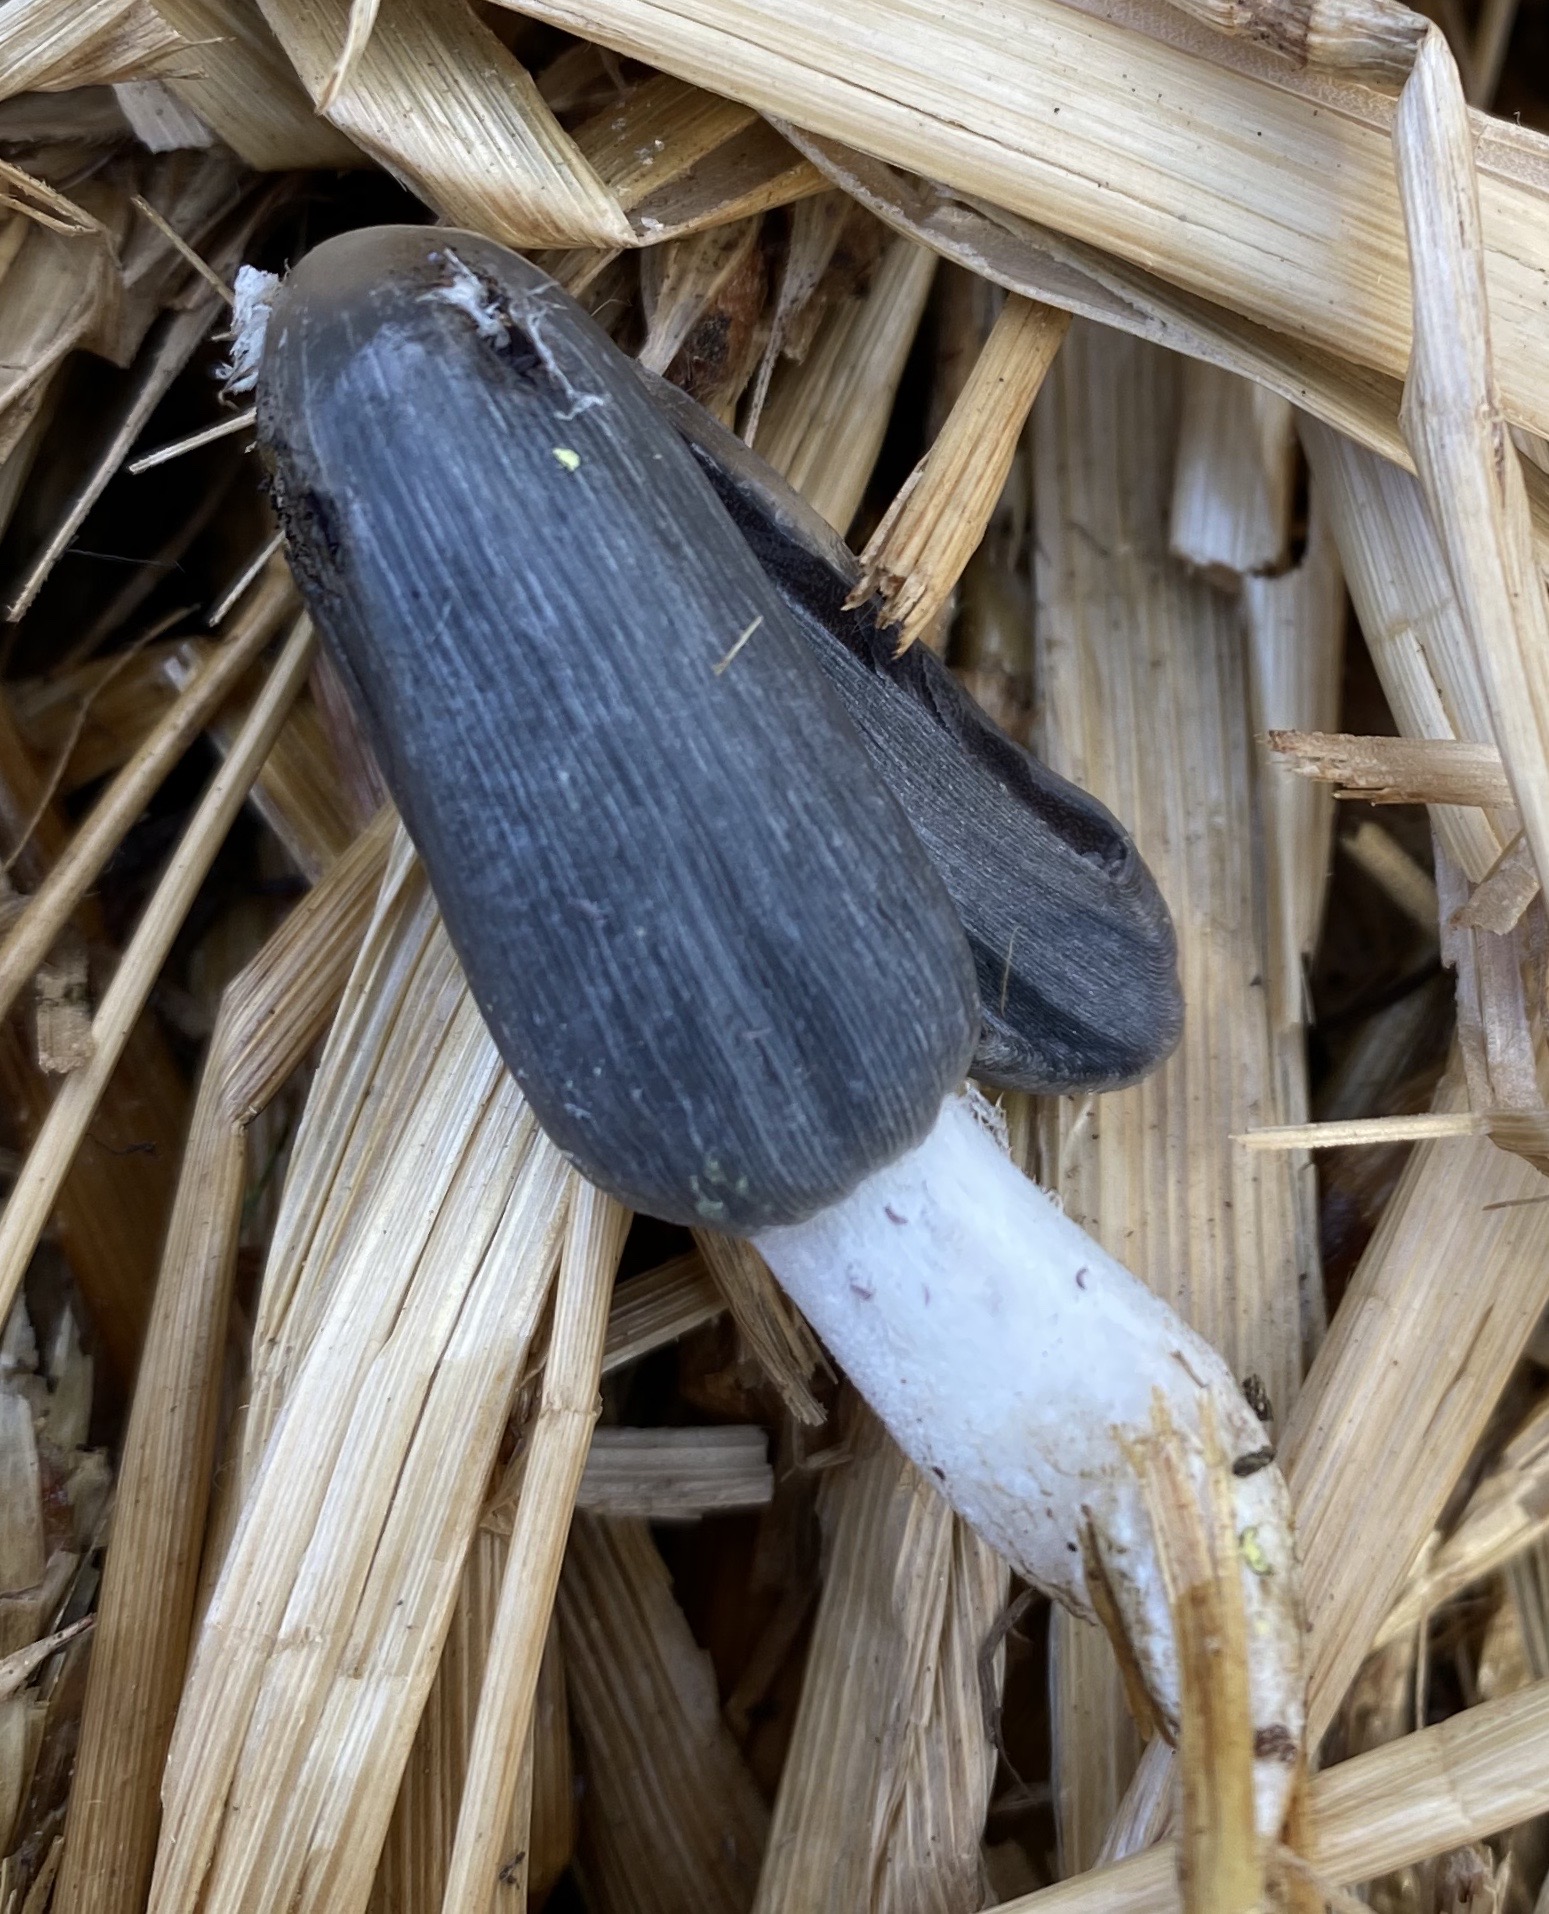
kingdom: Fungi
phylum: Basidiomycota
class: Agaricomycetes
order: Agaricales
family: Psathyrellaceae
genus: Coprinopsis
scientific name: Coprinopsis
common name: blækhat
